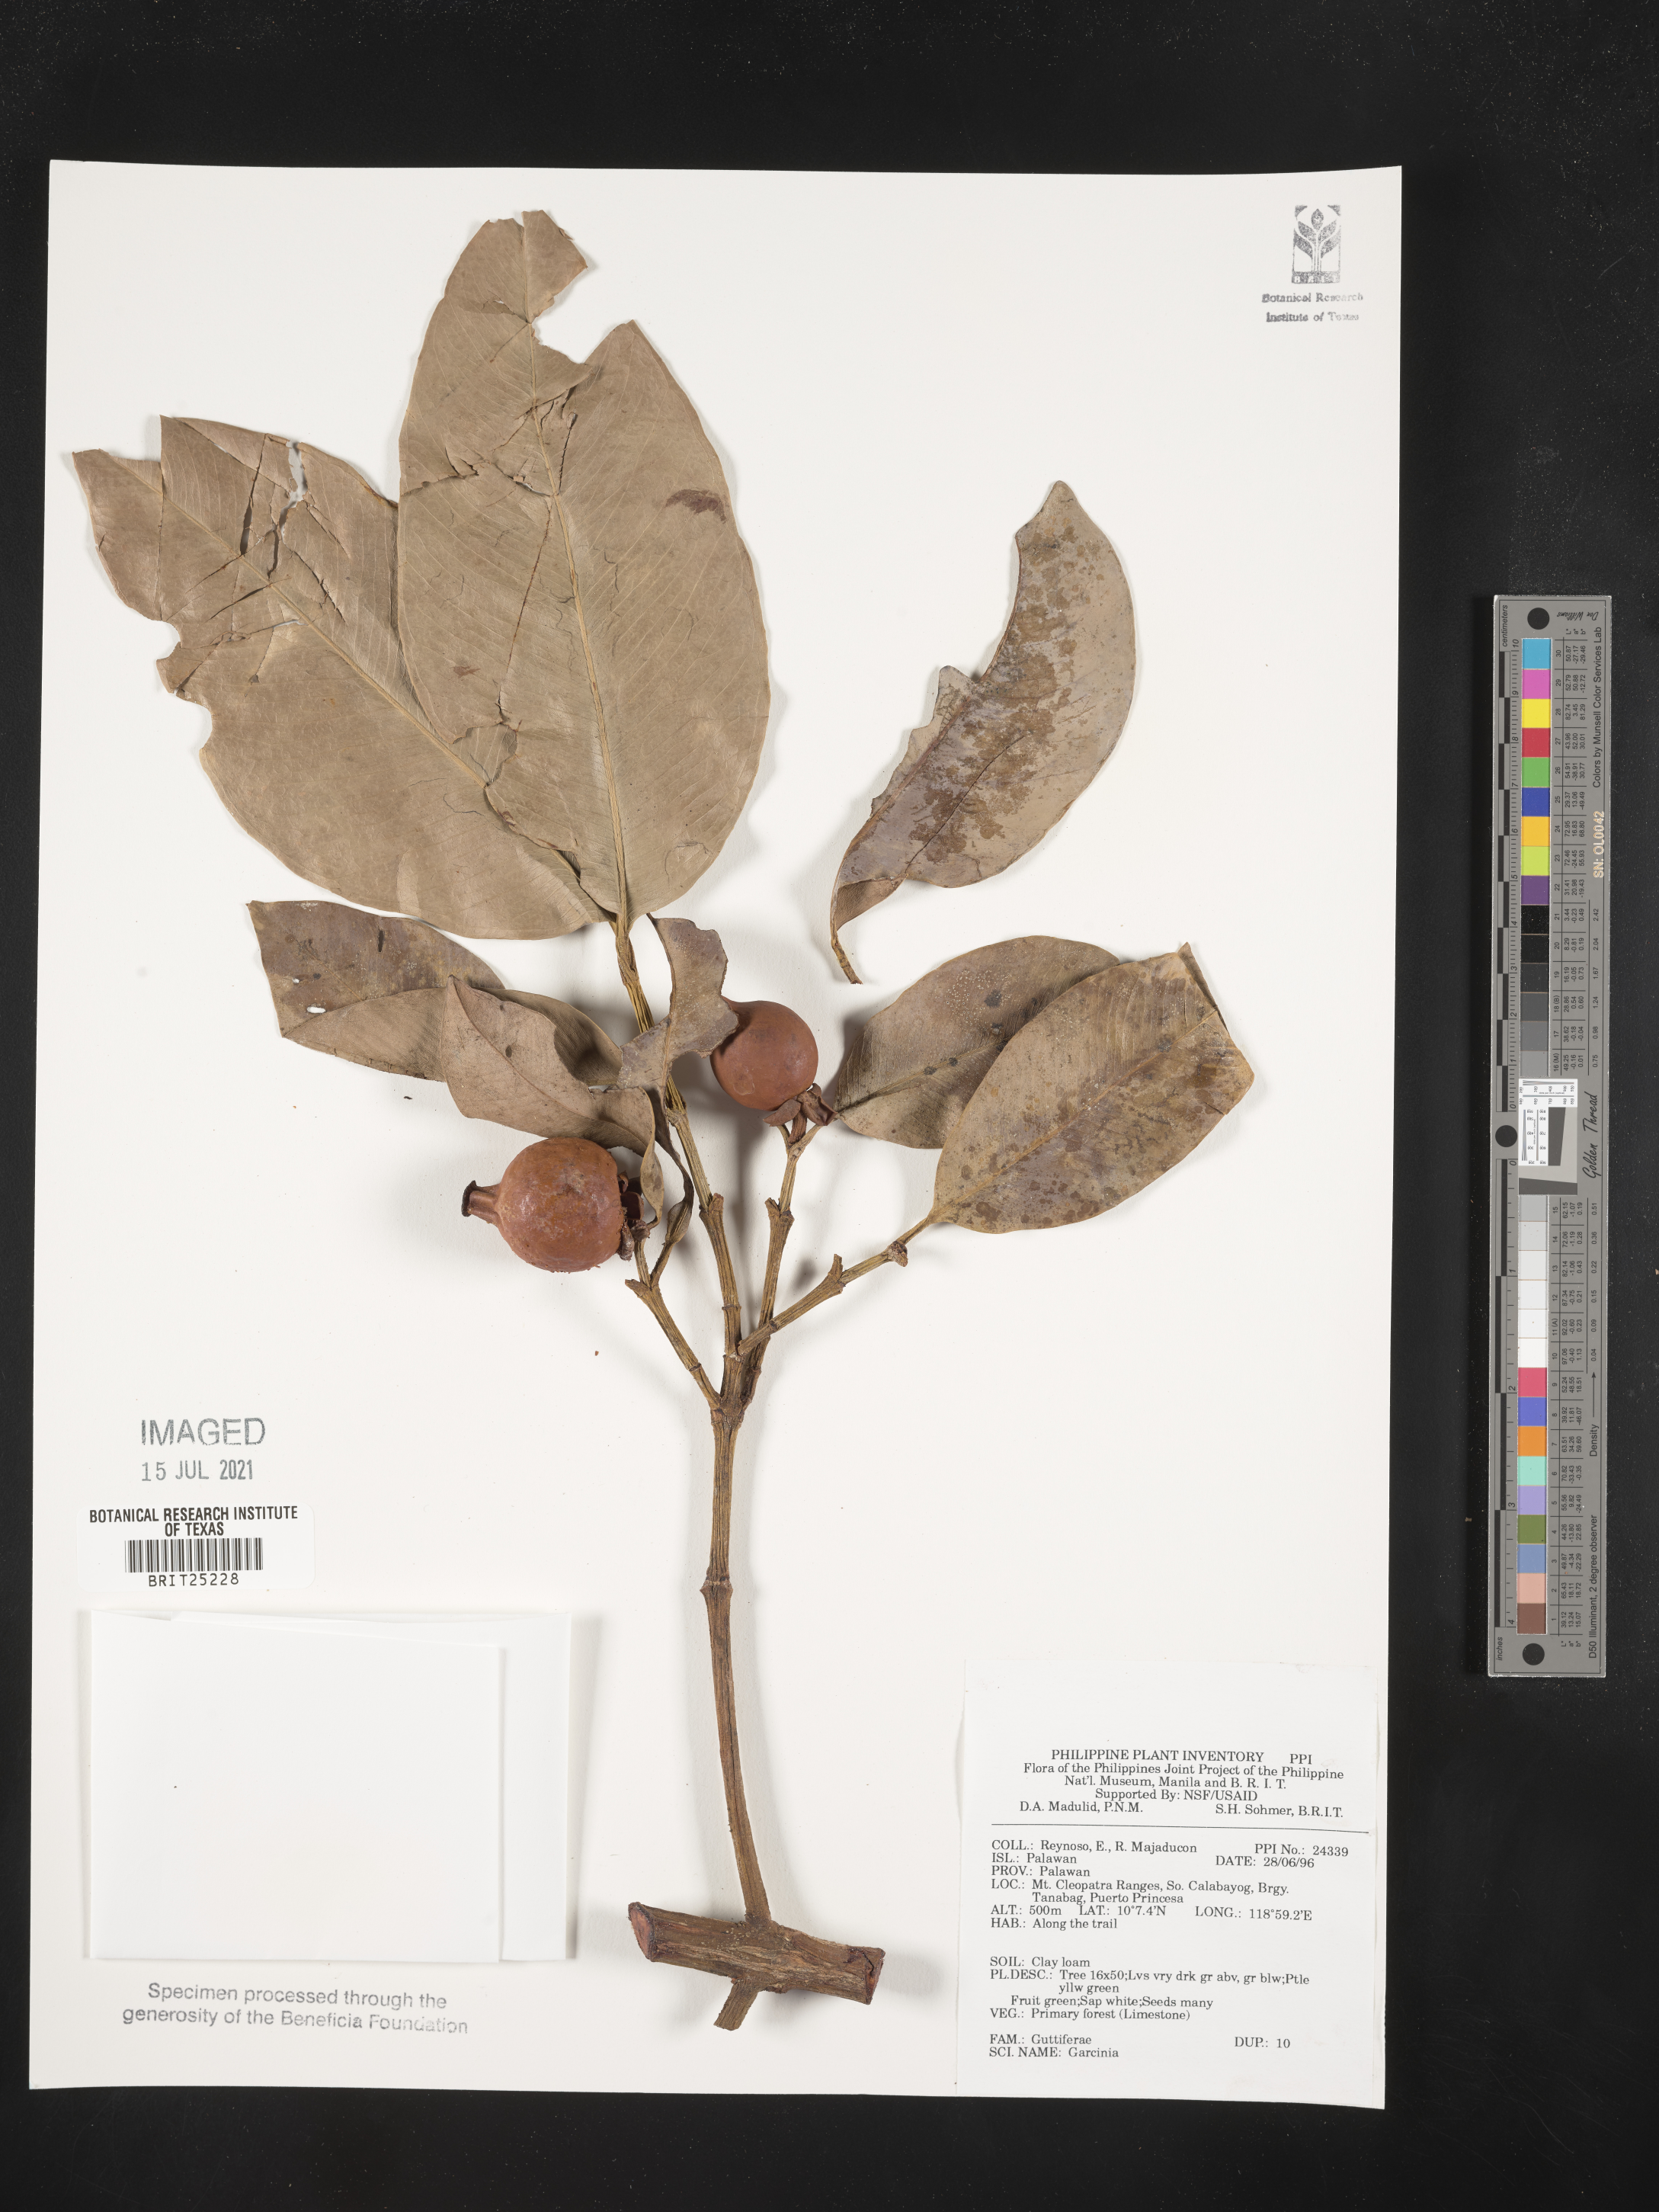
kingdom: Plantae
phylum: Tracheophyta
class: Magnoliopsida
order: Malpighiales
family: Clusiaceae
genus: Garcinia
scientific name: Garcinia
